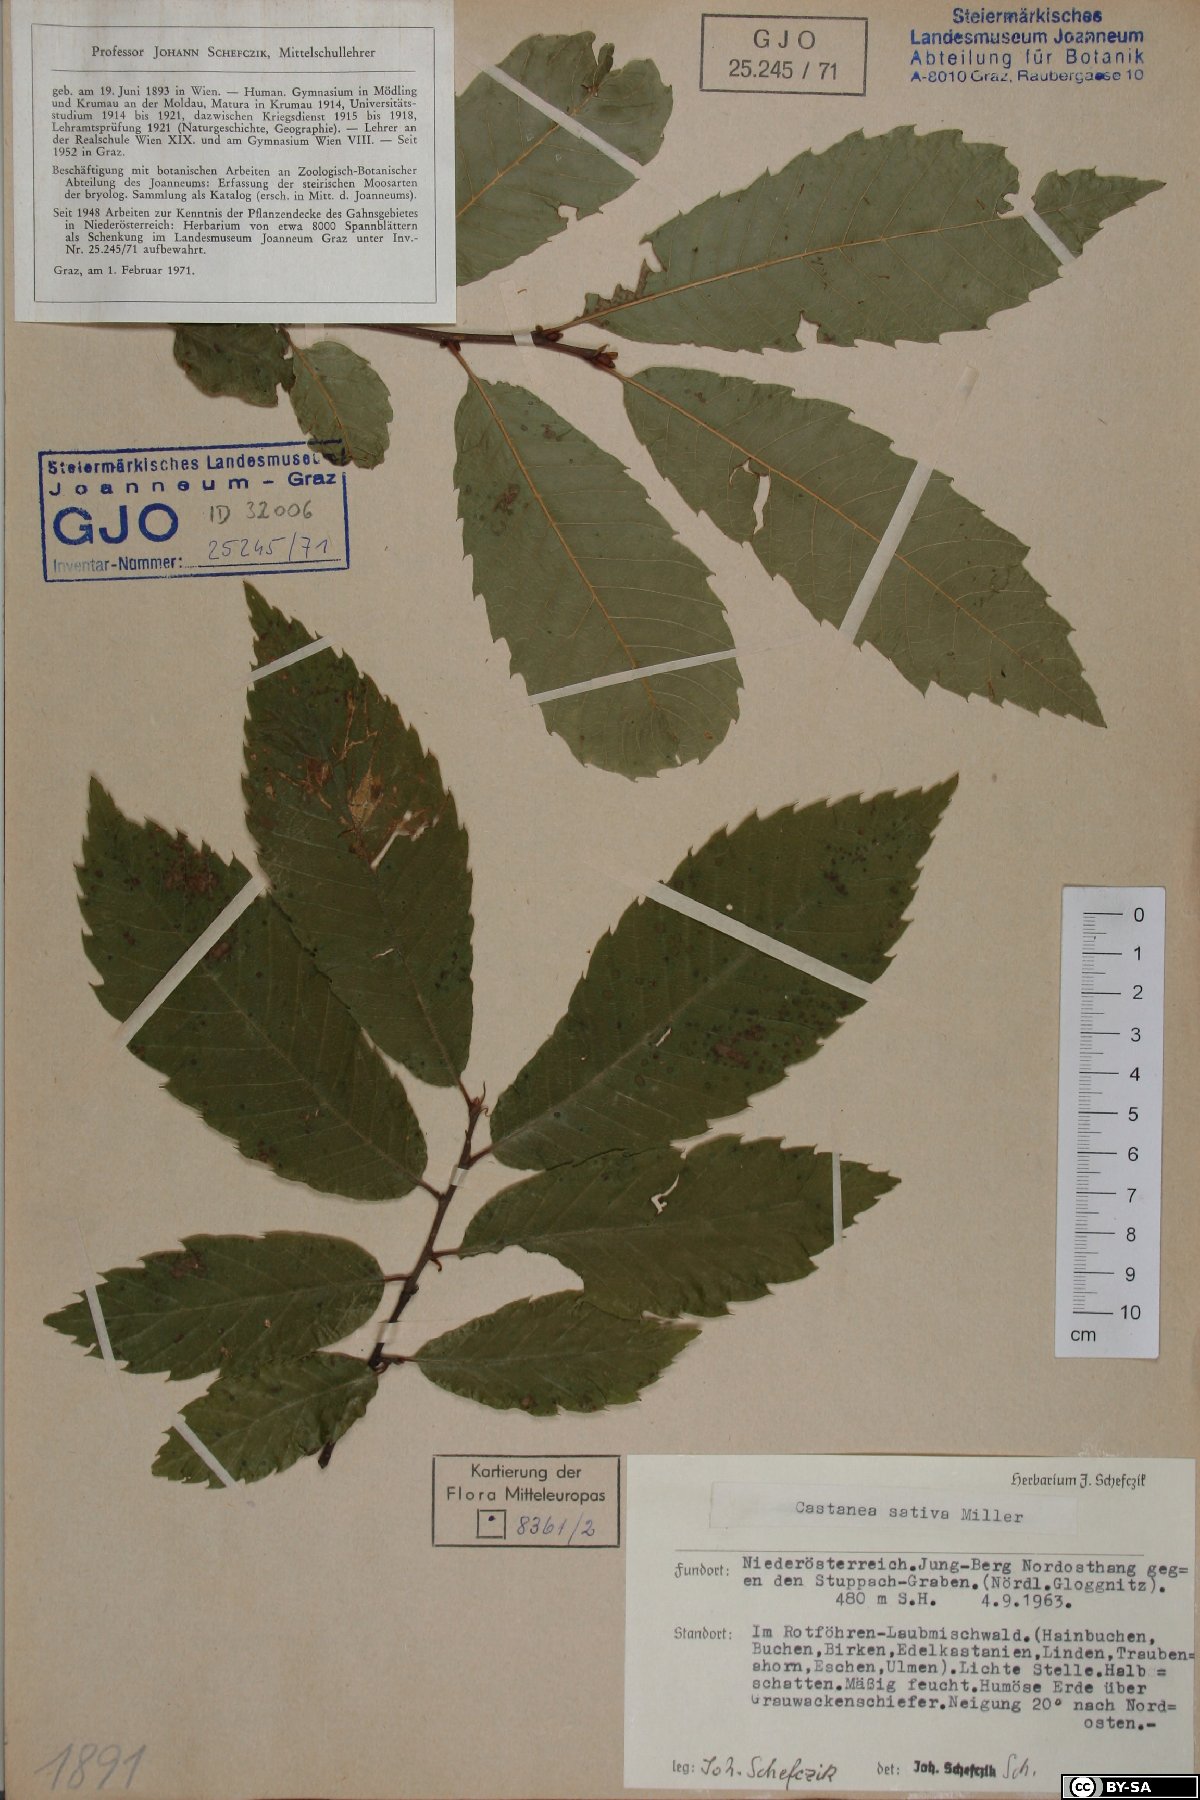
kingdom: Plantae
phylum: Tracheophyta
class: Magnoliopsida
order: Fagales
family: Fagaceae
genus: Castanea
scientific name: Castanea sativa
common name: Sweet chestnut
